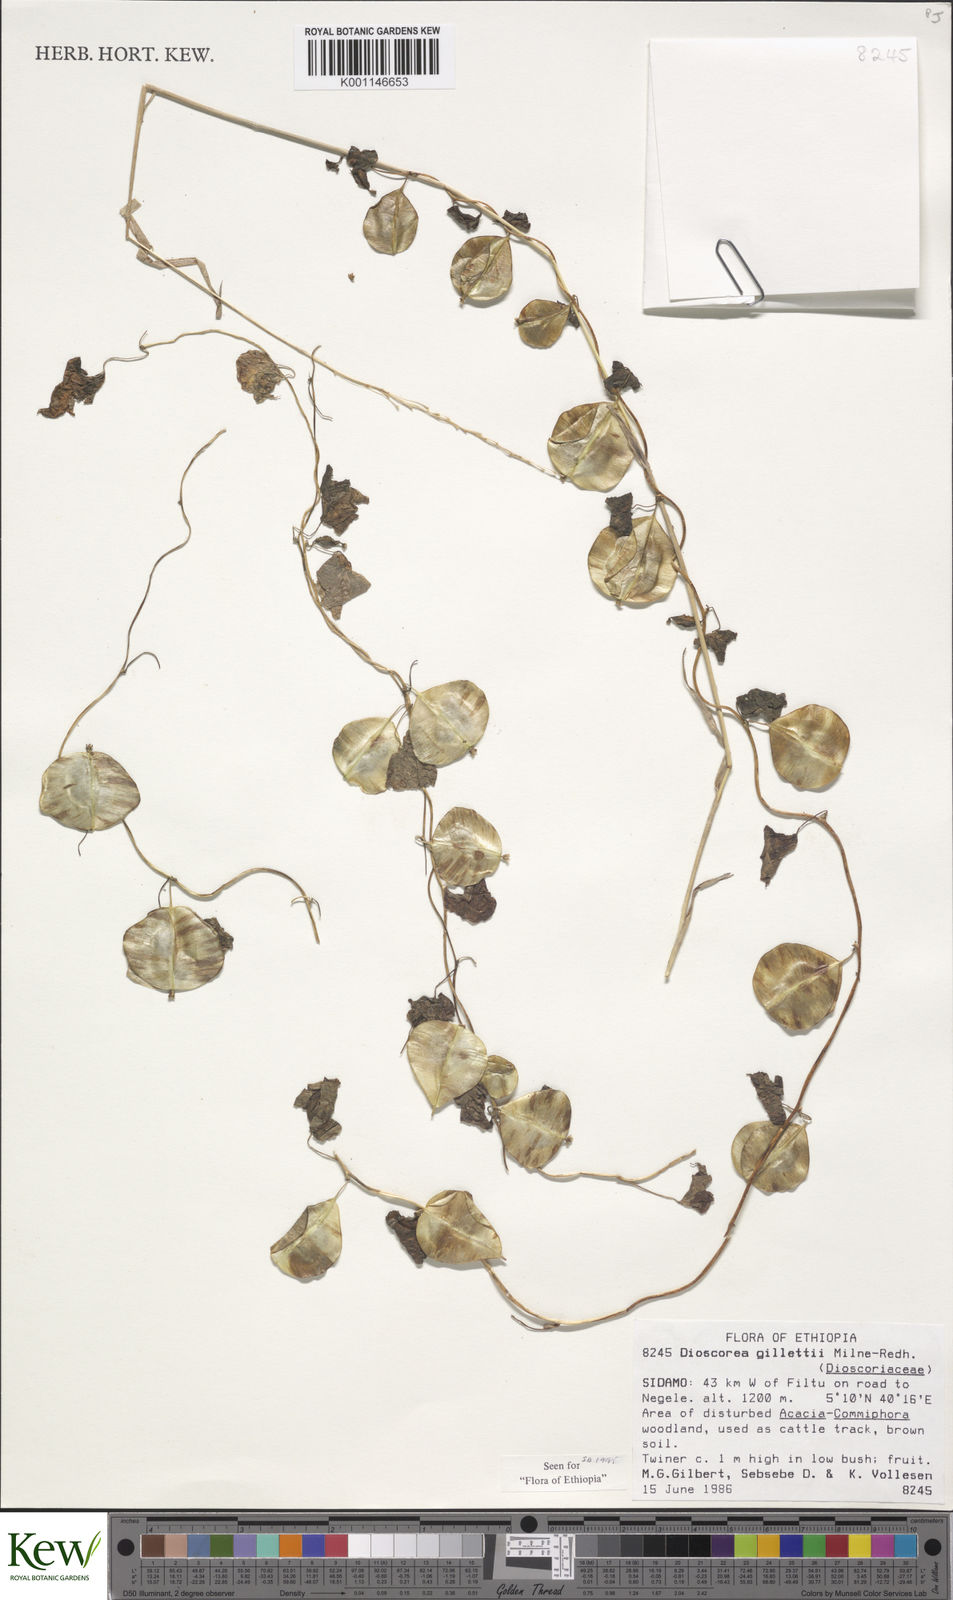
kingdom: Plantae
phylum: Tracheophyta
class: Liliopsida
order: Dioscoreales
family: Dioscoreaceae
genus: Dioscorea
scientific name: Dioscorea gillettii
